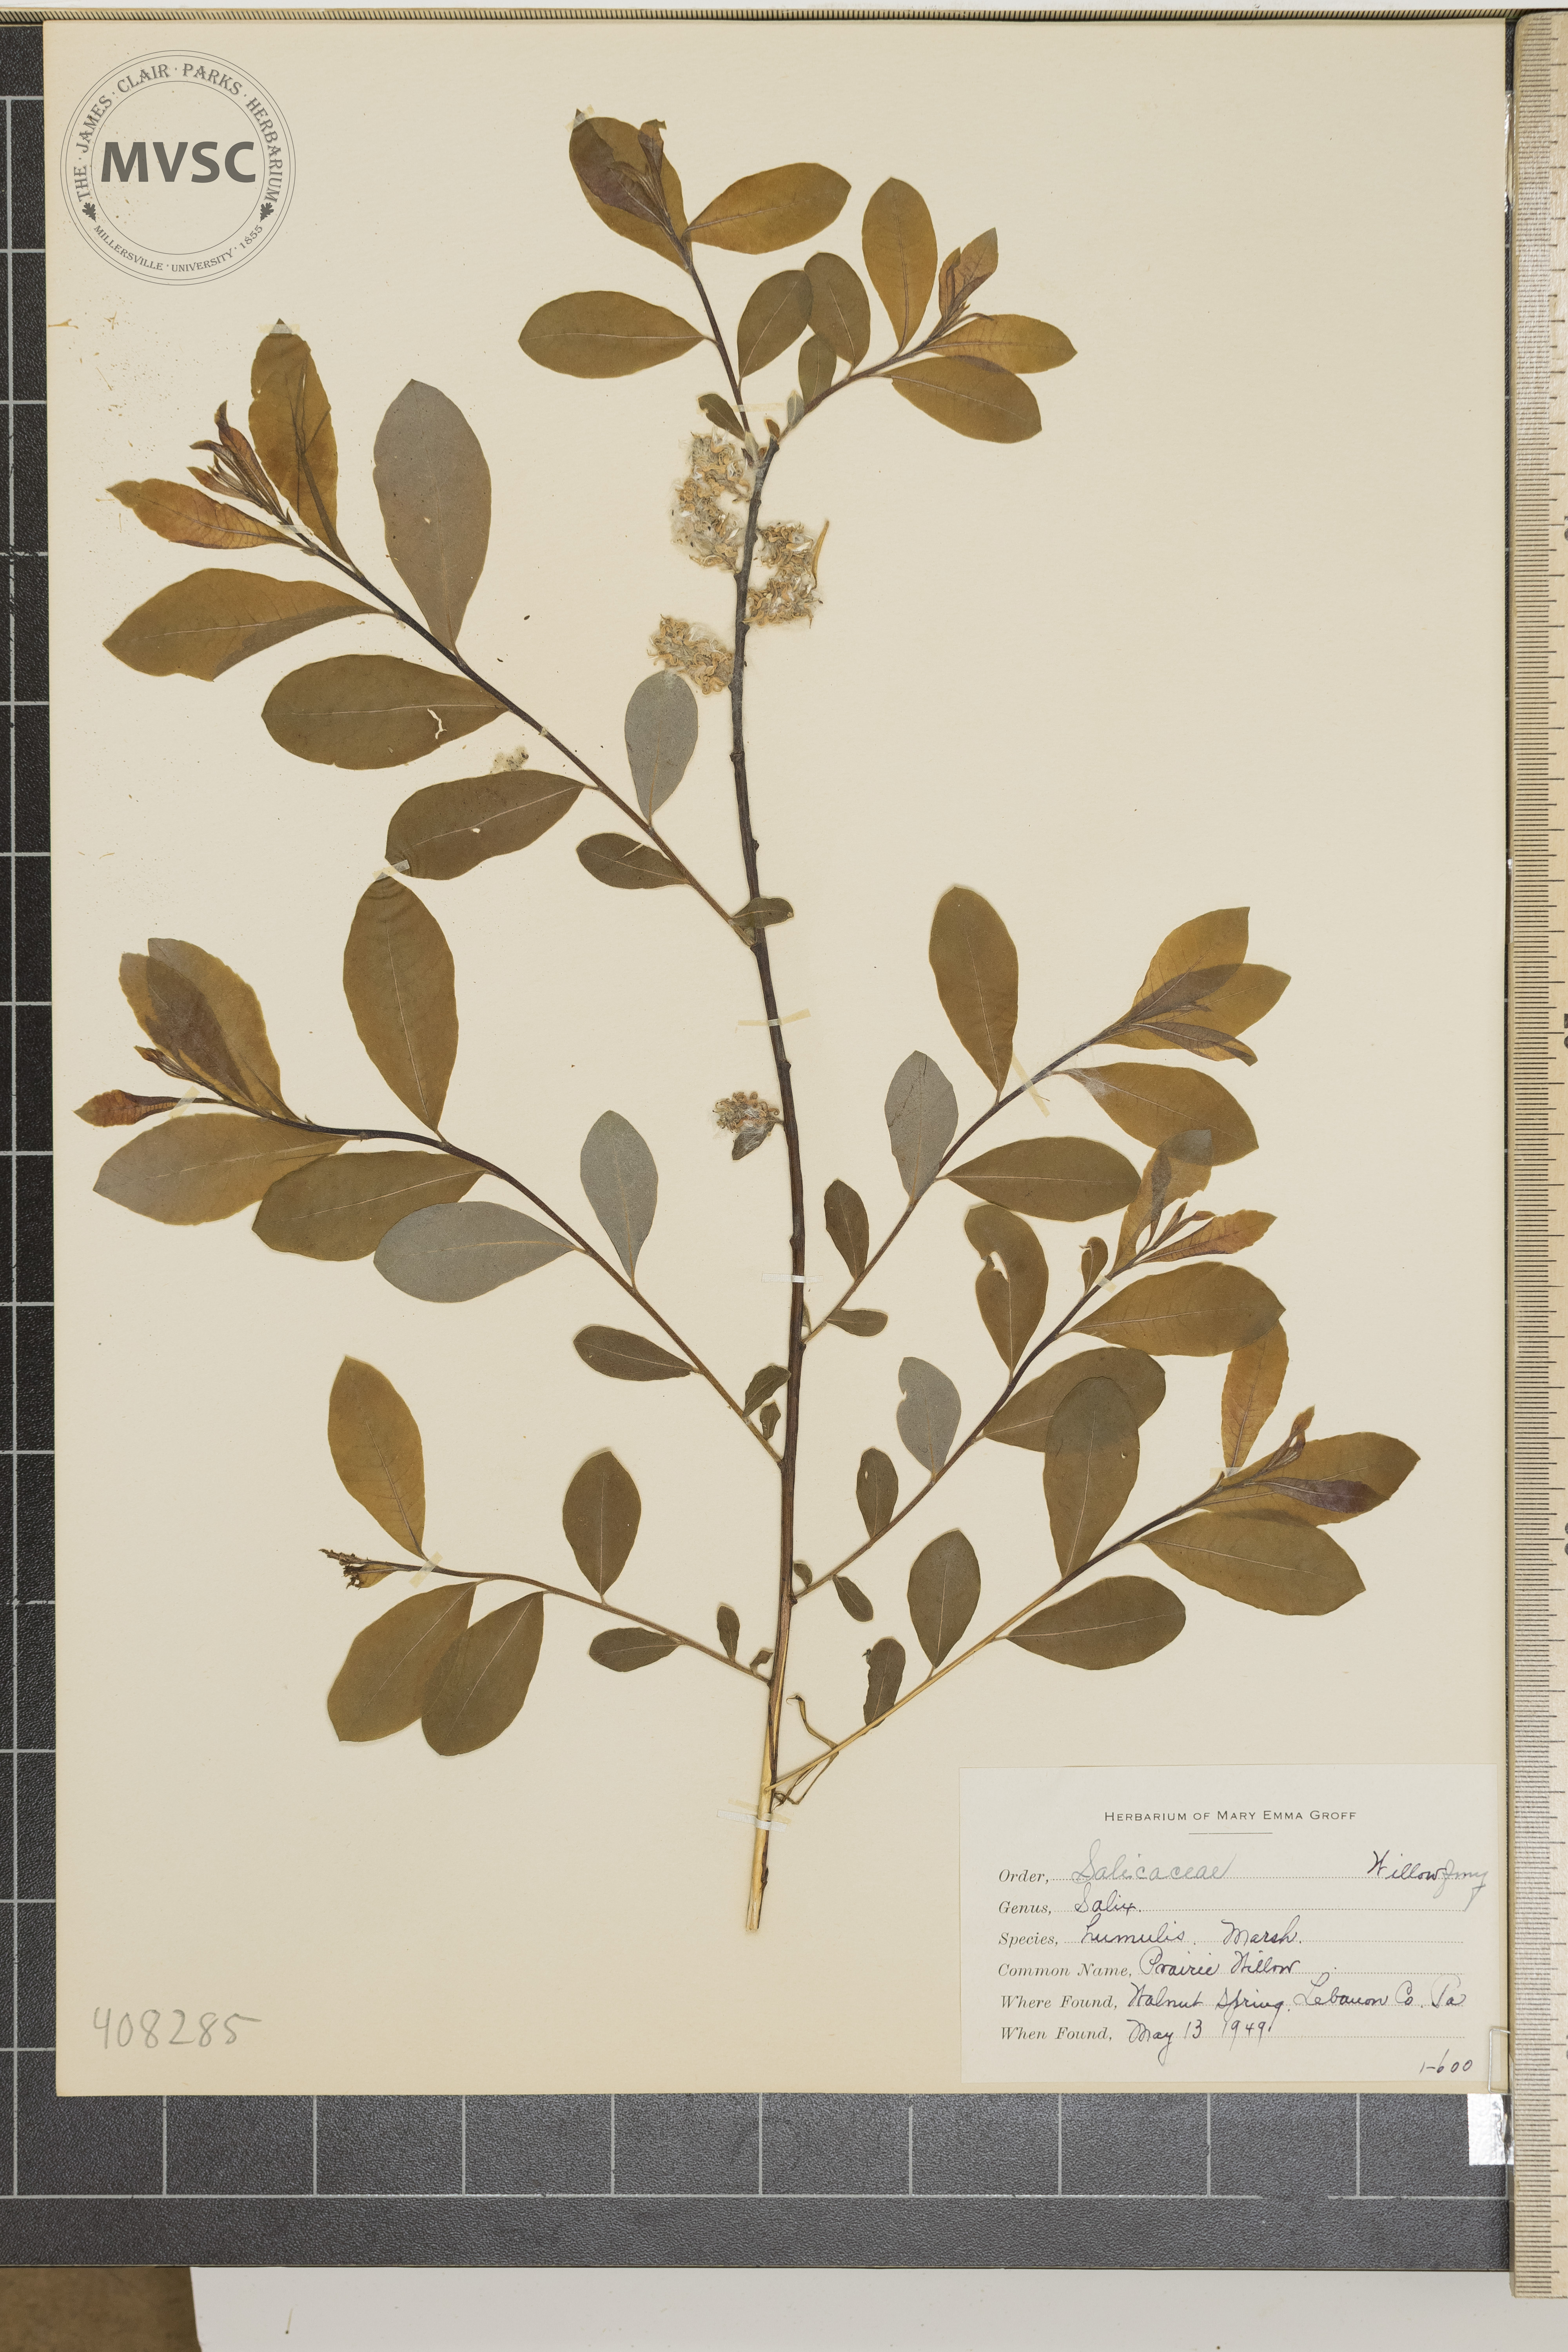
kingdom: Plantae
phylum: Tracheophyta
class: Magnoliopsida
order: Malpighiales
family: Salicaceae
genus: Salix
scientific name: Salix humilis
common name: Prairie Willow
